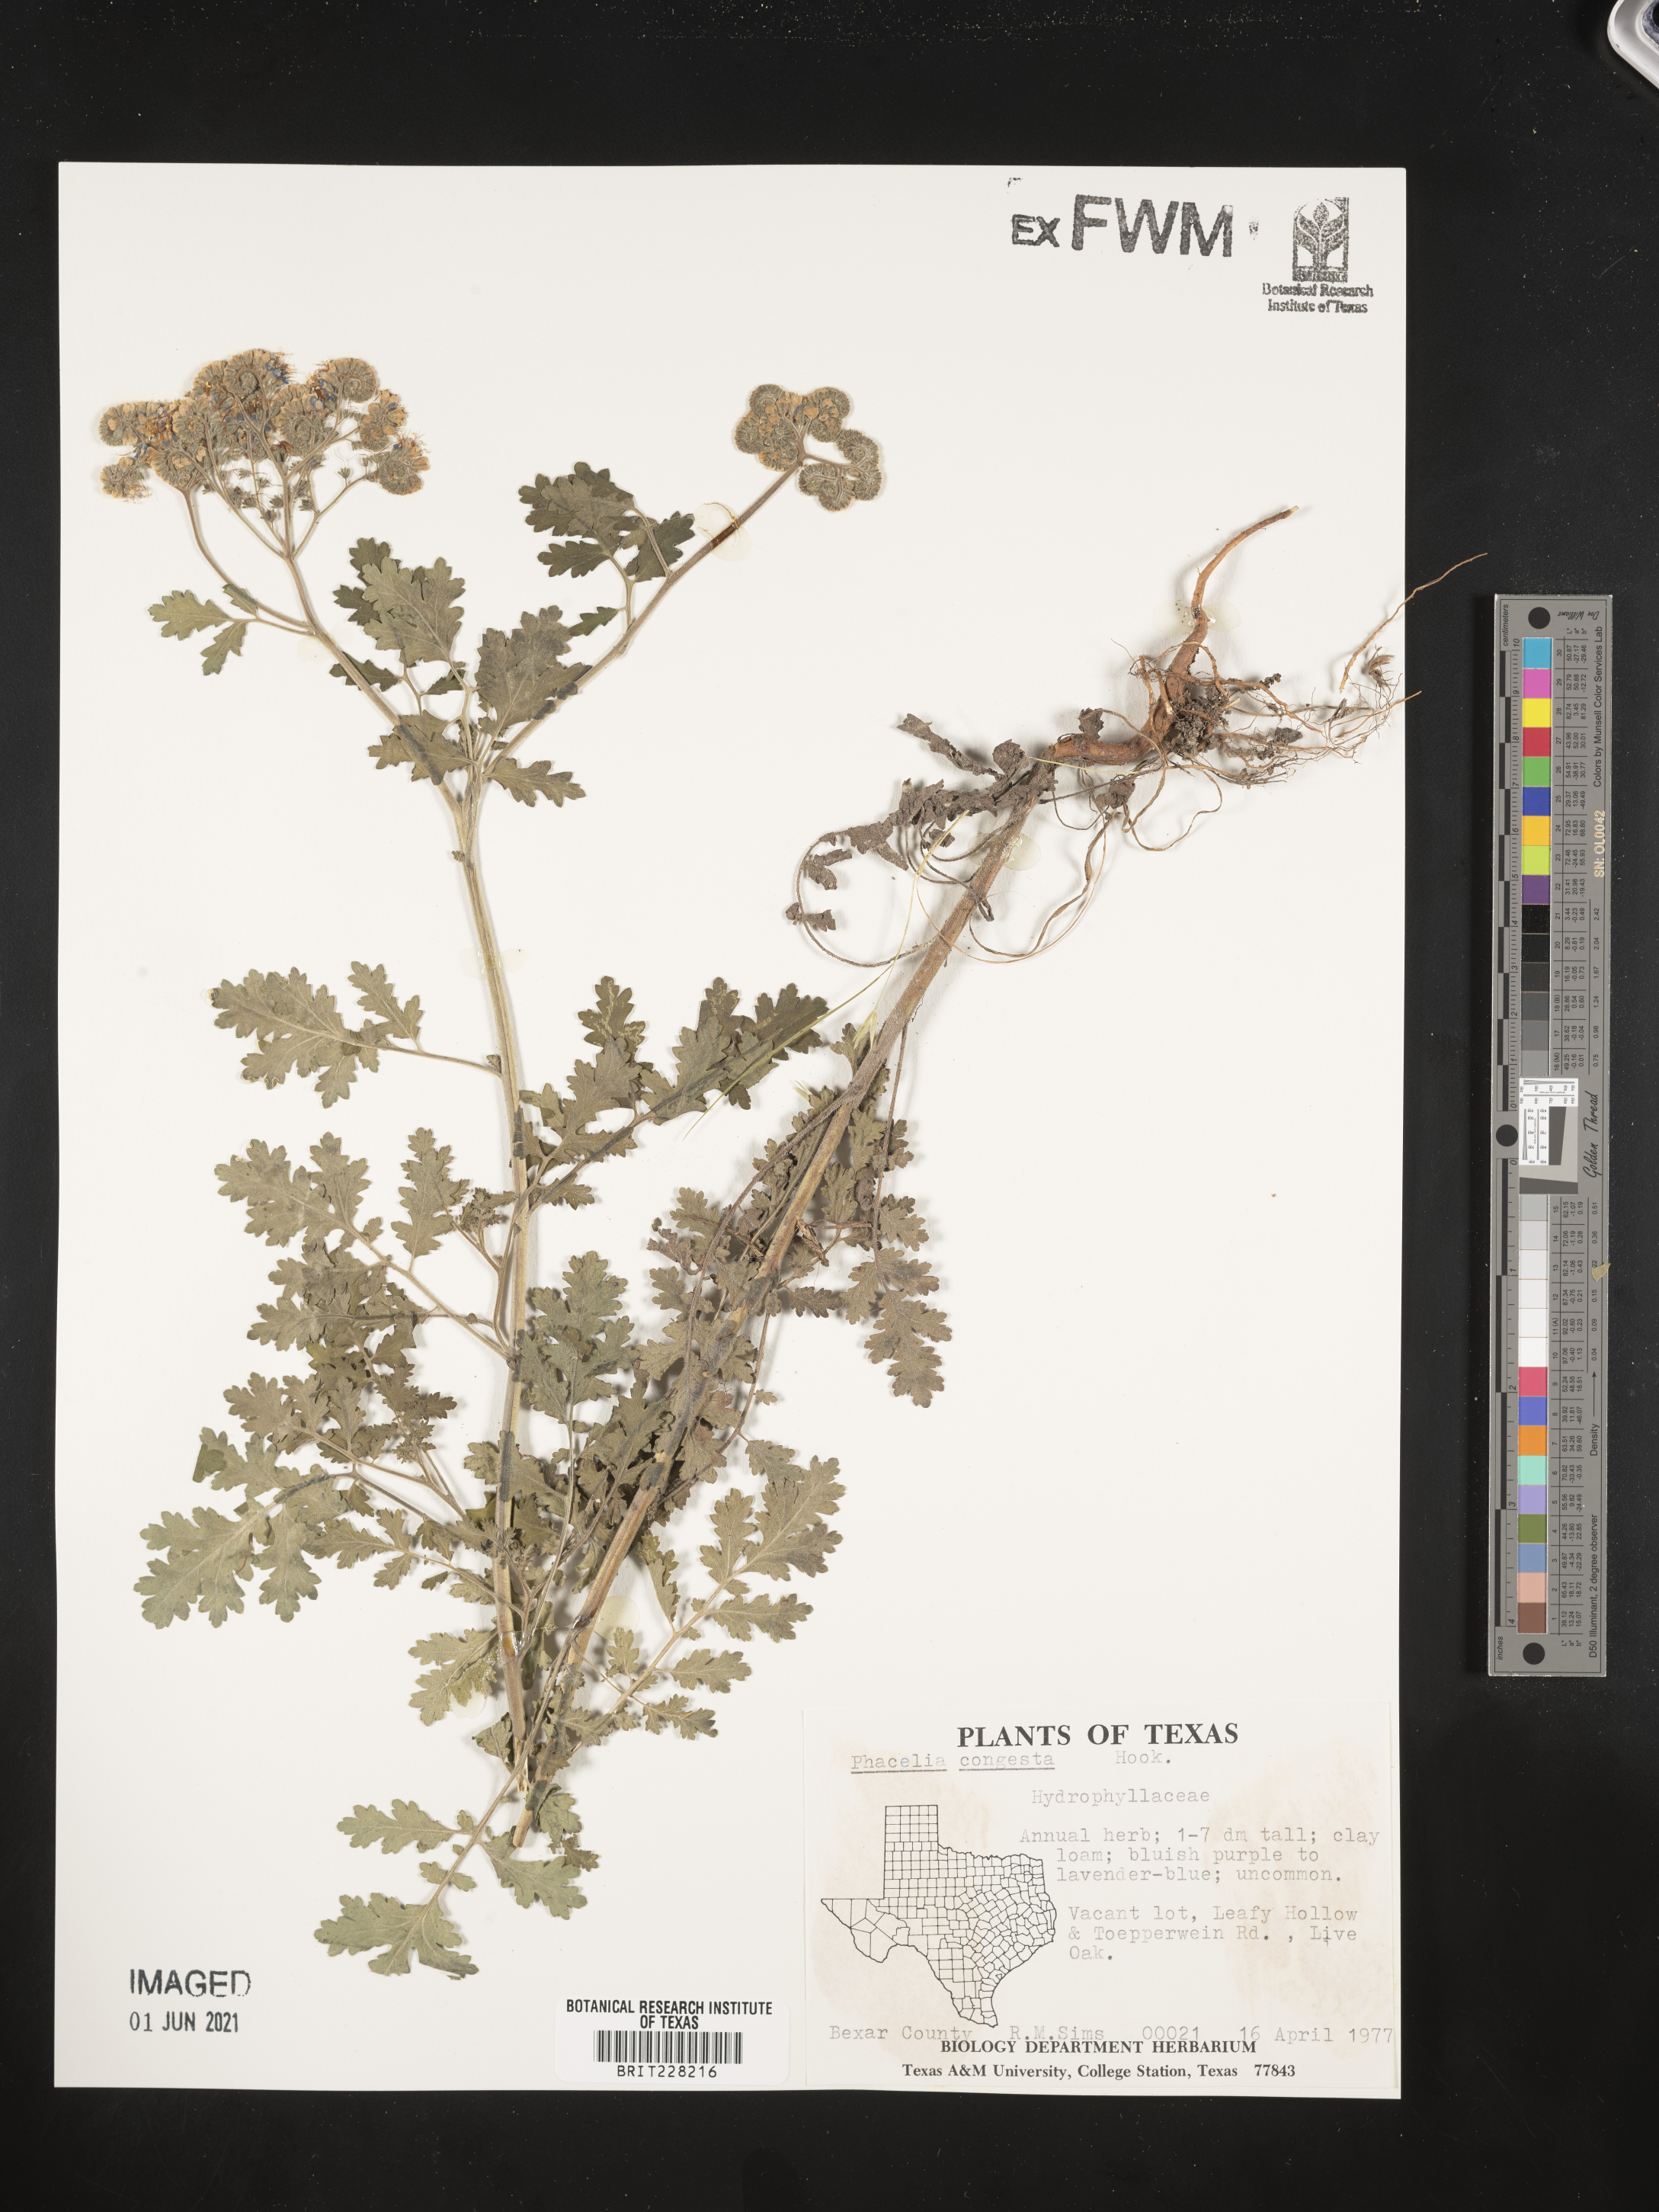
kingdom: Plantae
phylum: Tracheophyta
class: Magnoliopsida
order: Boraginales
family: Hydrophyllaceae
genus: Phacelia
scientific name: Phacelia congesta
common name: Blue curls
